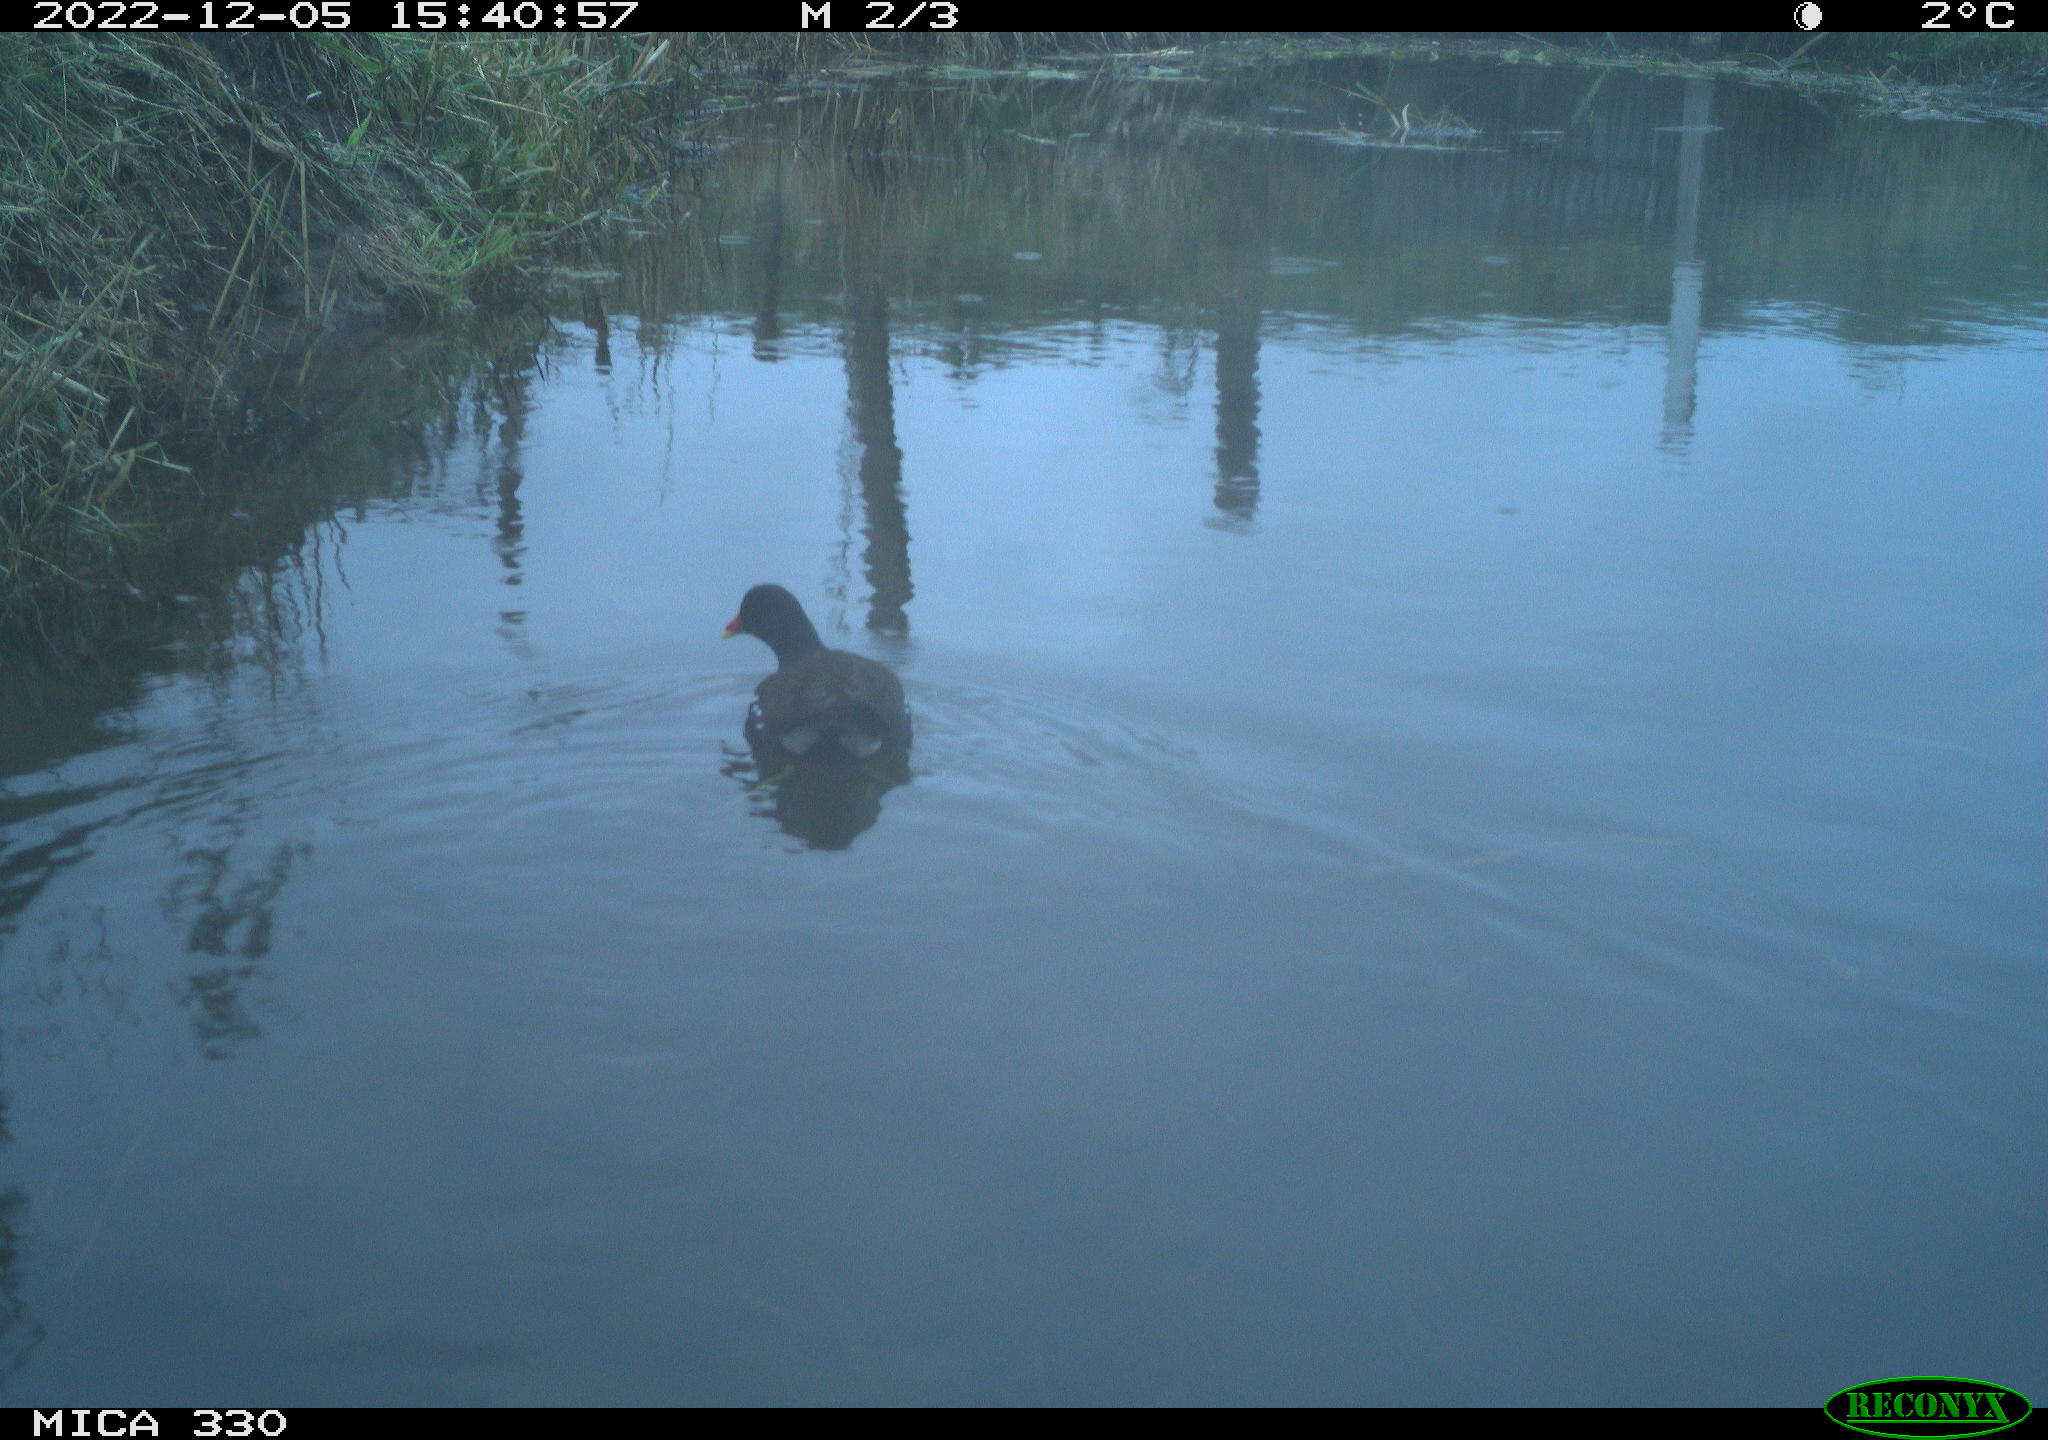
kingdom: Animalia
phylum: Chordata
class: Aves
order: Gruiformes
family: Rallidae
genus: Gallinula
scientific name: Gallinula chloropus
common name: Common moorhen
